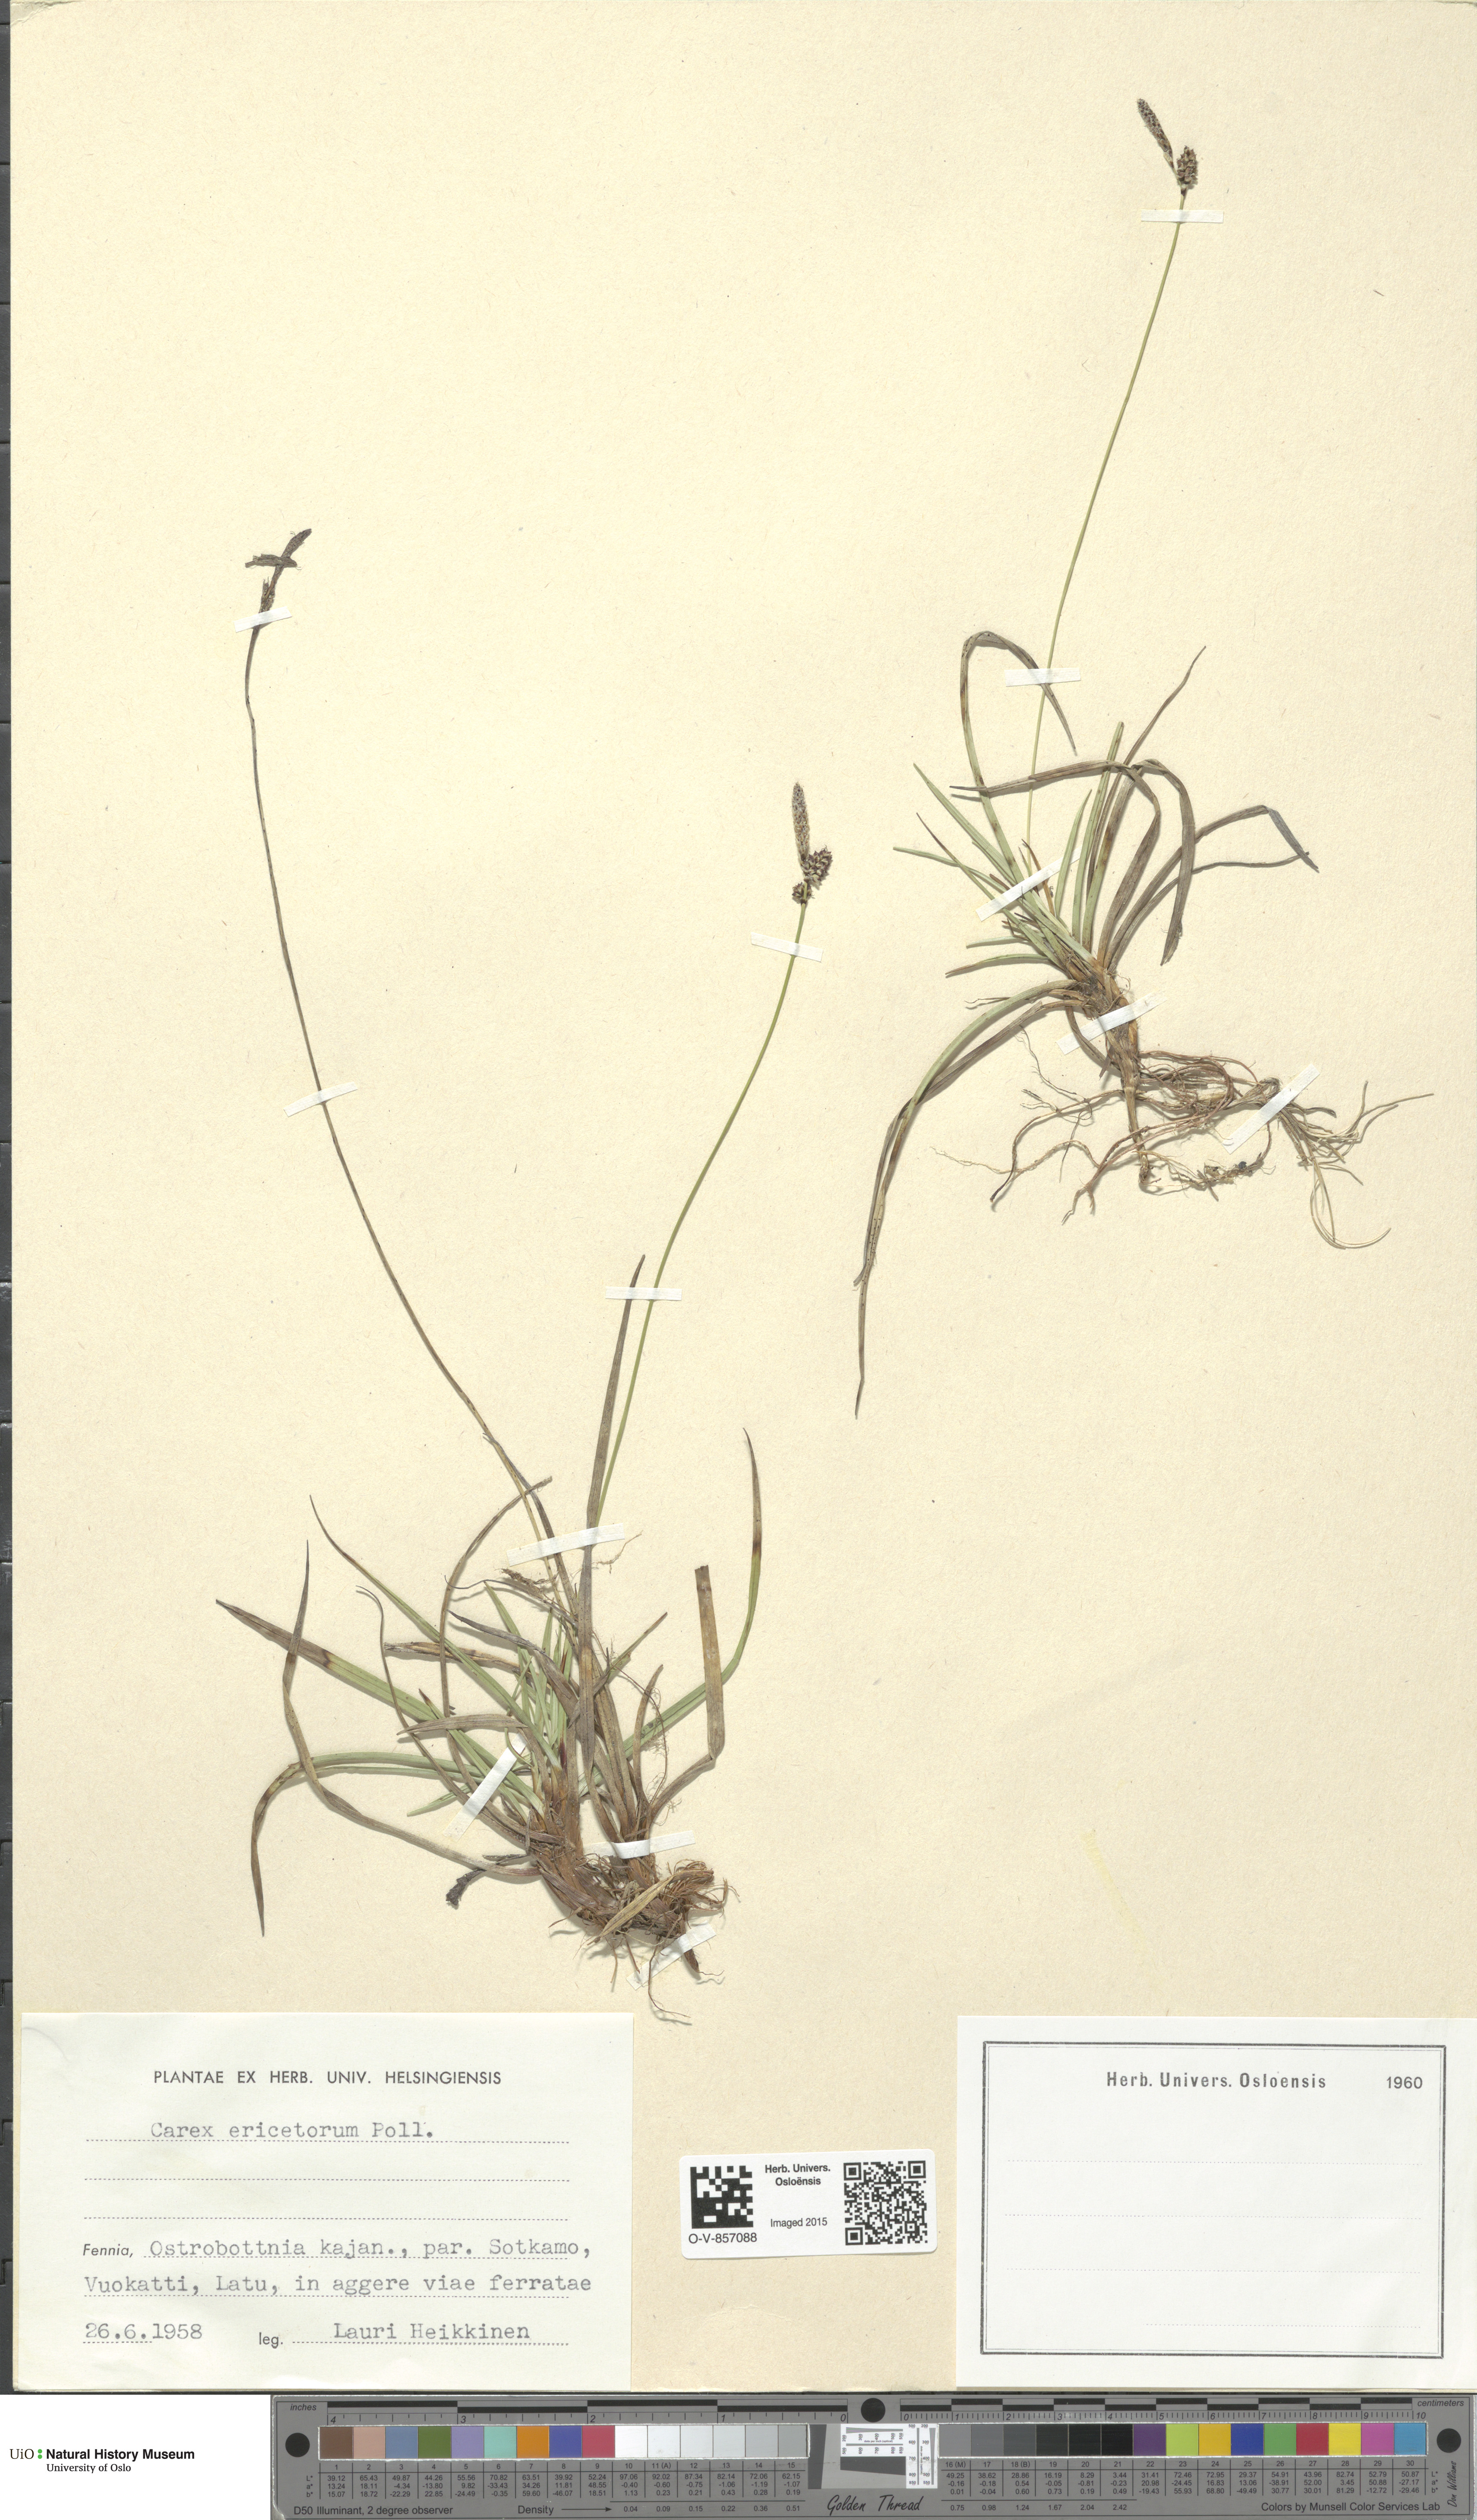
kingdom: Plantae
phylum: Tracheophyta
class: Liliopsida
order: Poales
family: Cyperaceae
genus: Carex
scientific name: Carex ericetorum
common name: Rare spring-sedge
